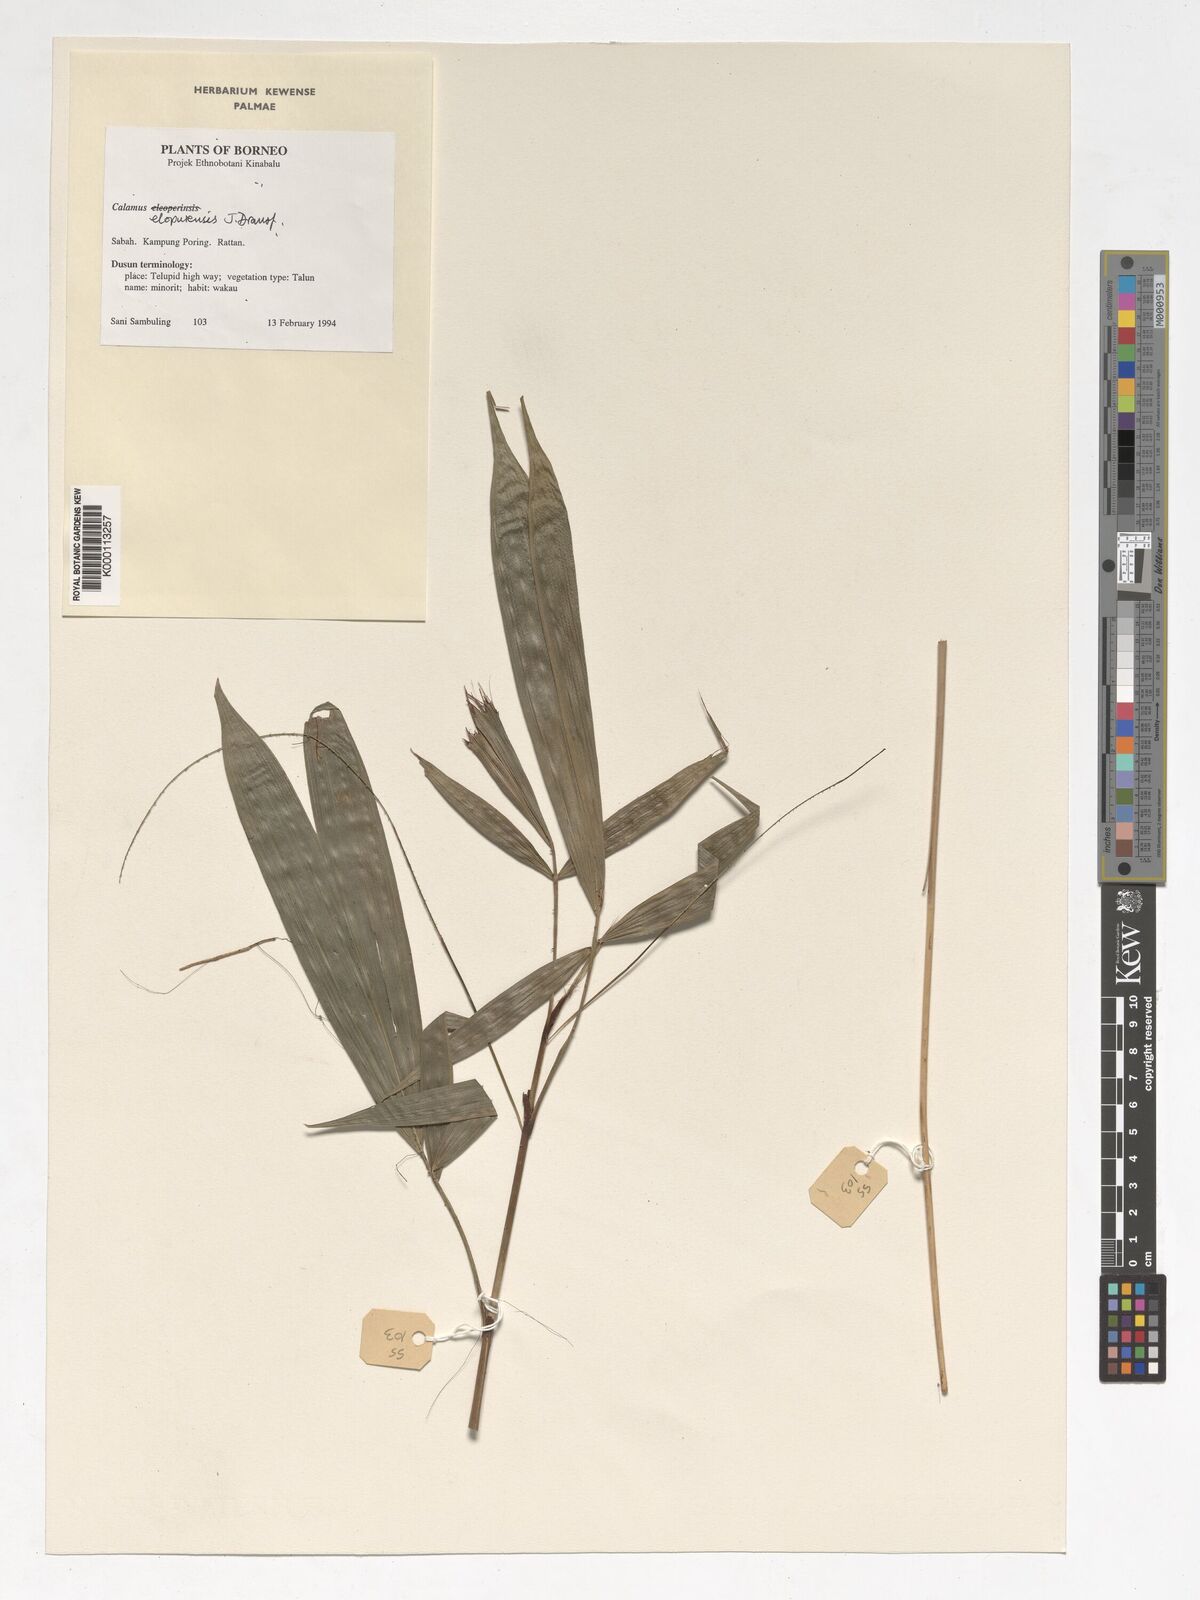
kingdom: Plantae
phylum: Tracheophyta
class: Liliopsida
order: Arecales
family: Arecaceae
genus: Calamus
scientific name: Calamus javensis
